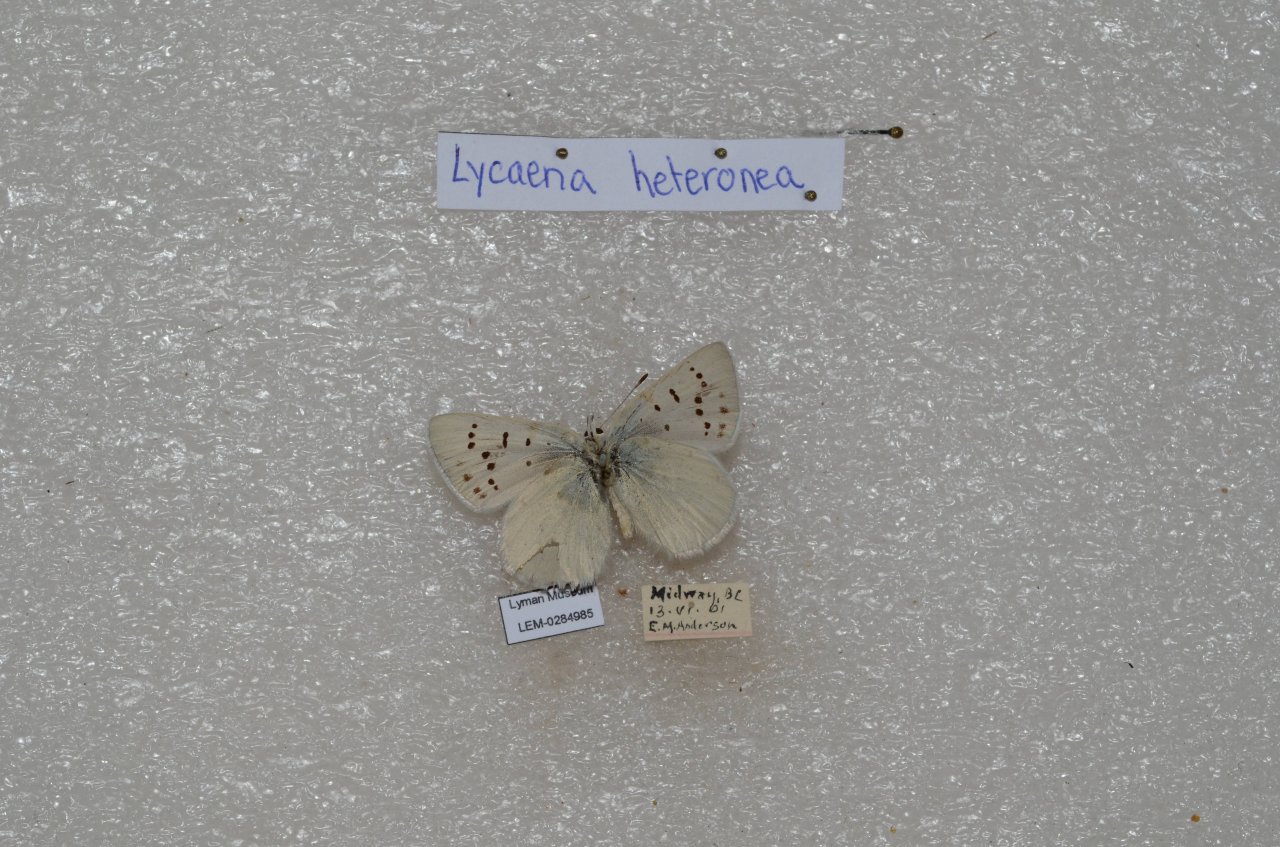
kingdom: Animalia
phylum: Arthropoda
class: Insecta
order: Lepidoptera
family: Lycaenidae
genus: Lycaena
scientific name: Lycaena heteronea
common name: Blue Copper
